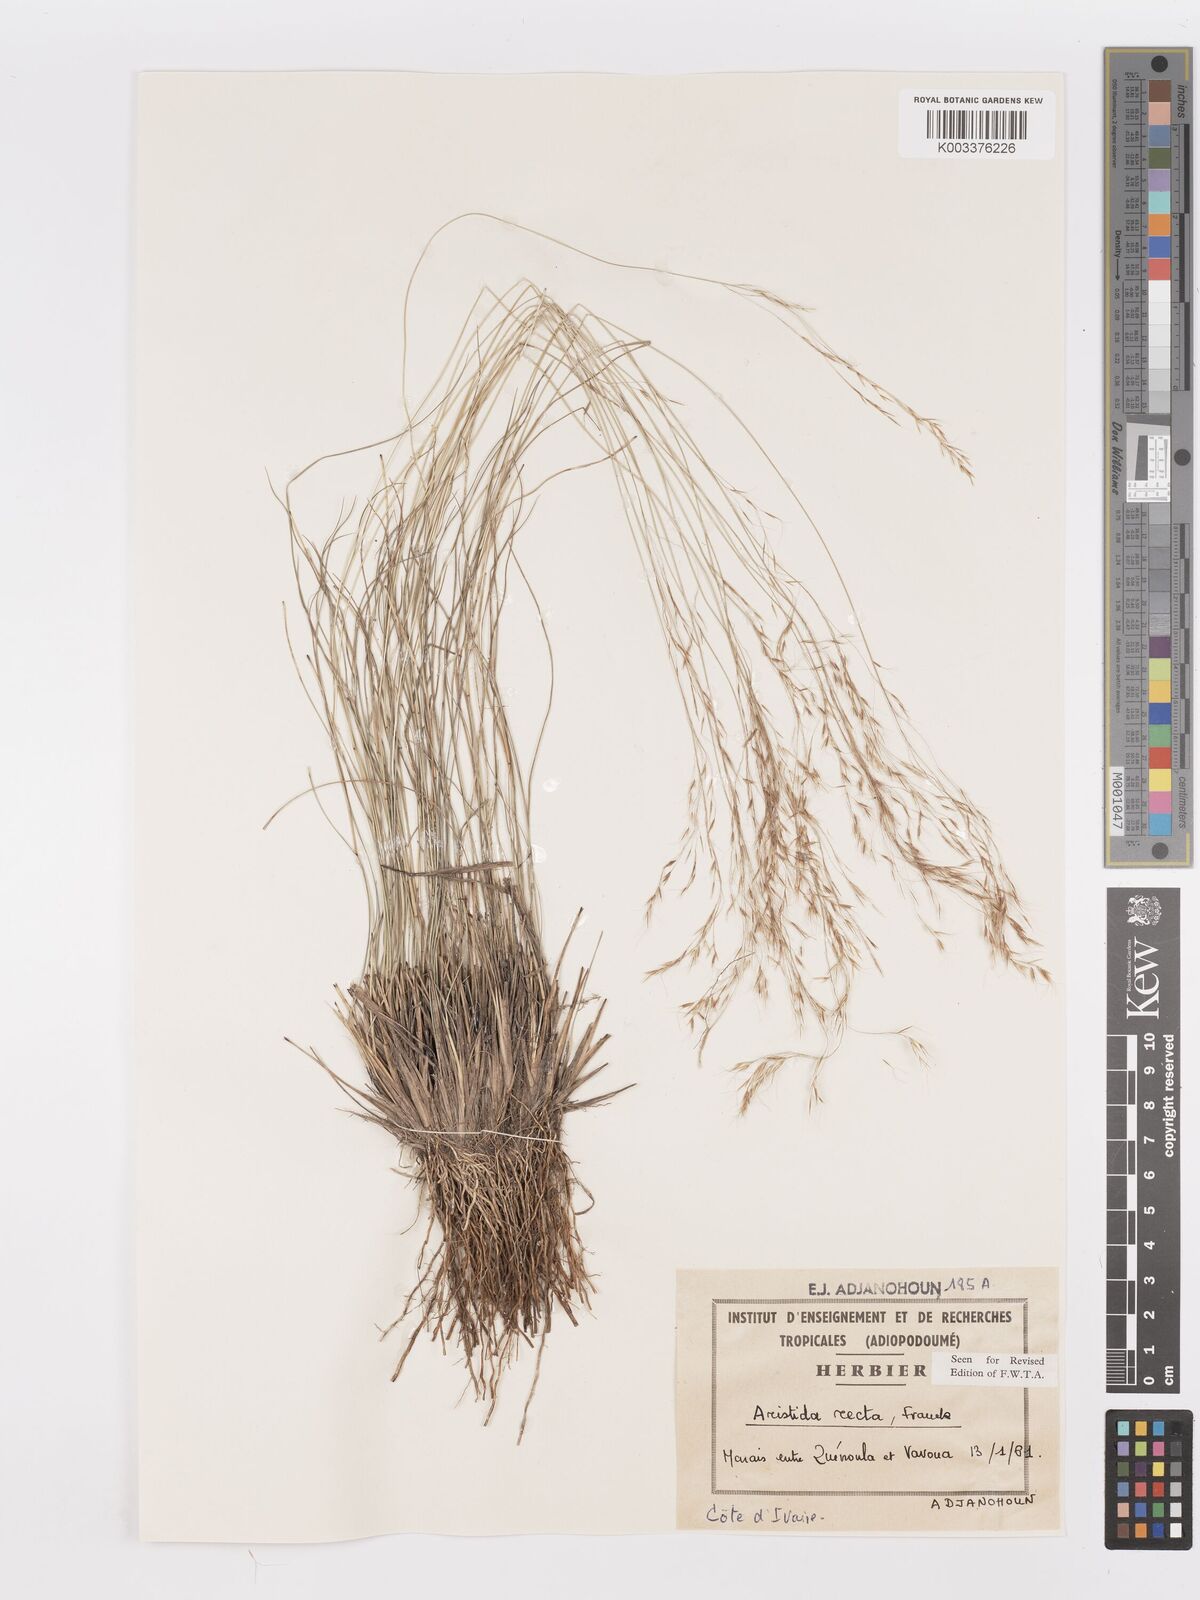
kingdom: Plantae
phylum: Tracheophyta
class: Liliopsida
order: Poales
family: Poaceae
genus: Aristida
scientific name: Aristida recta
